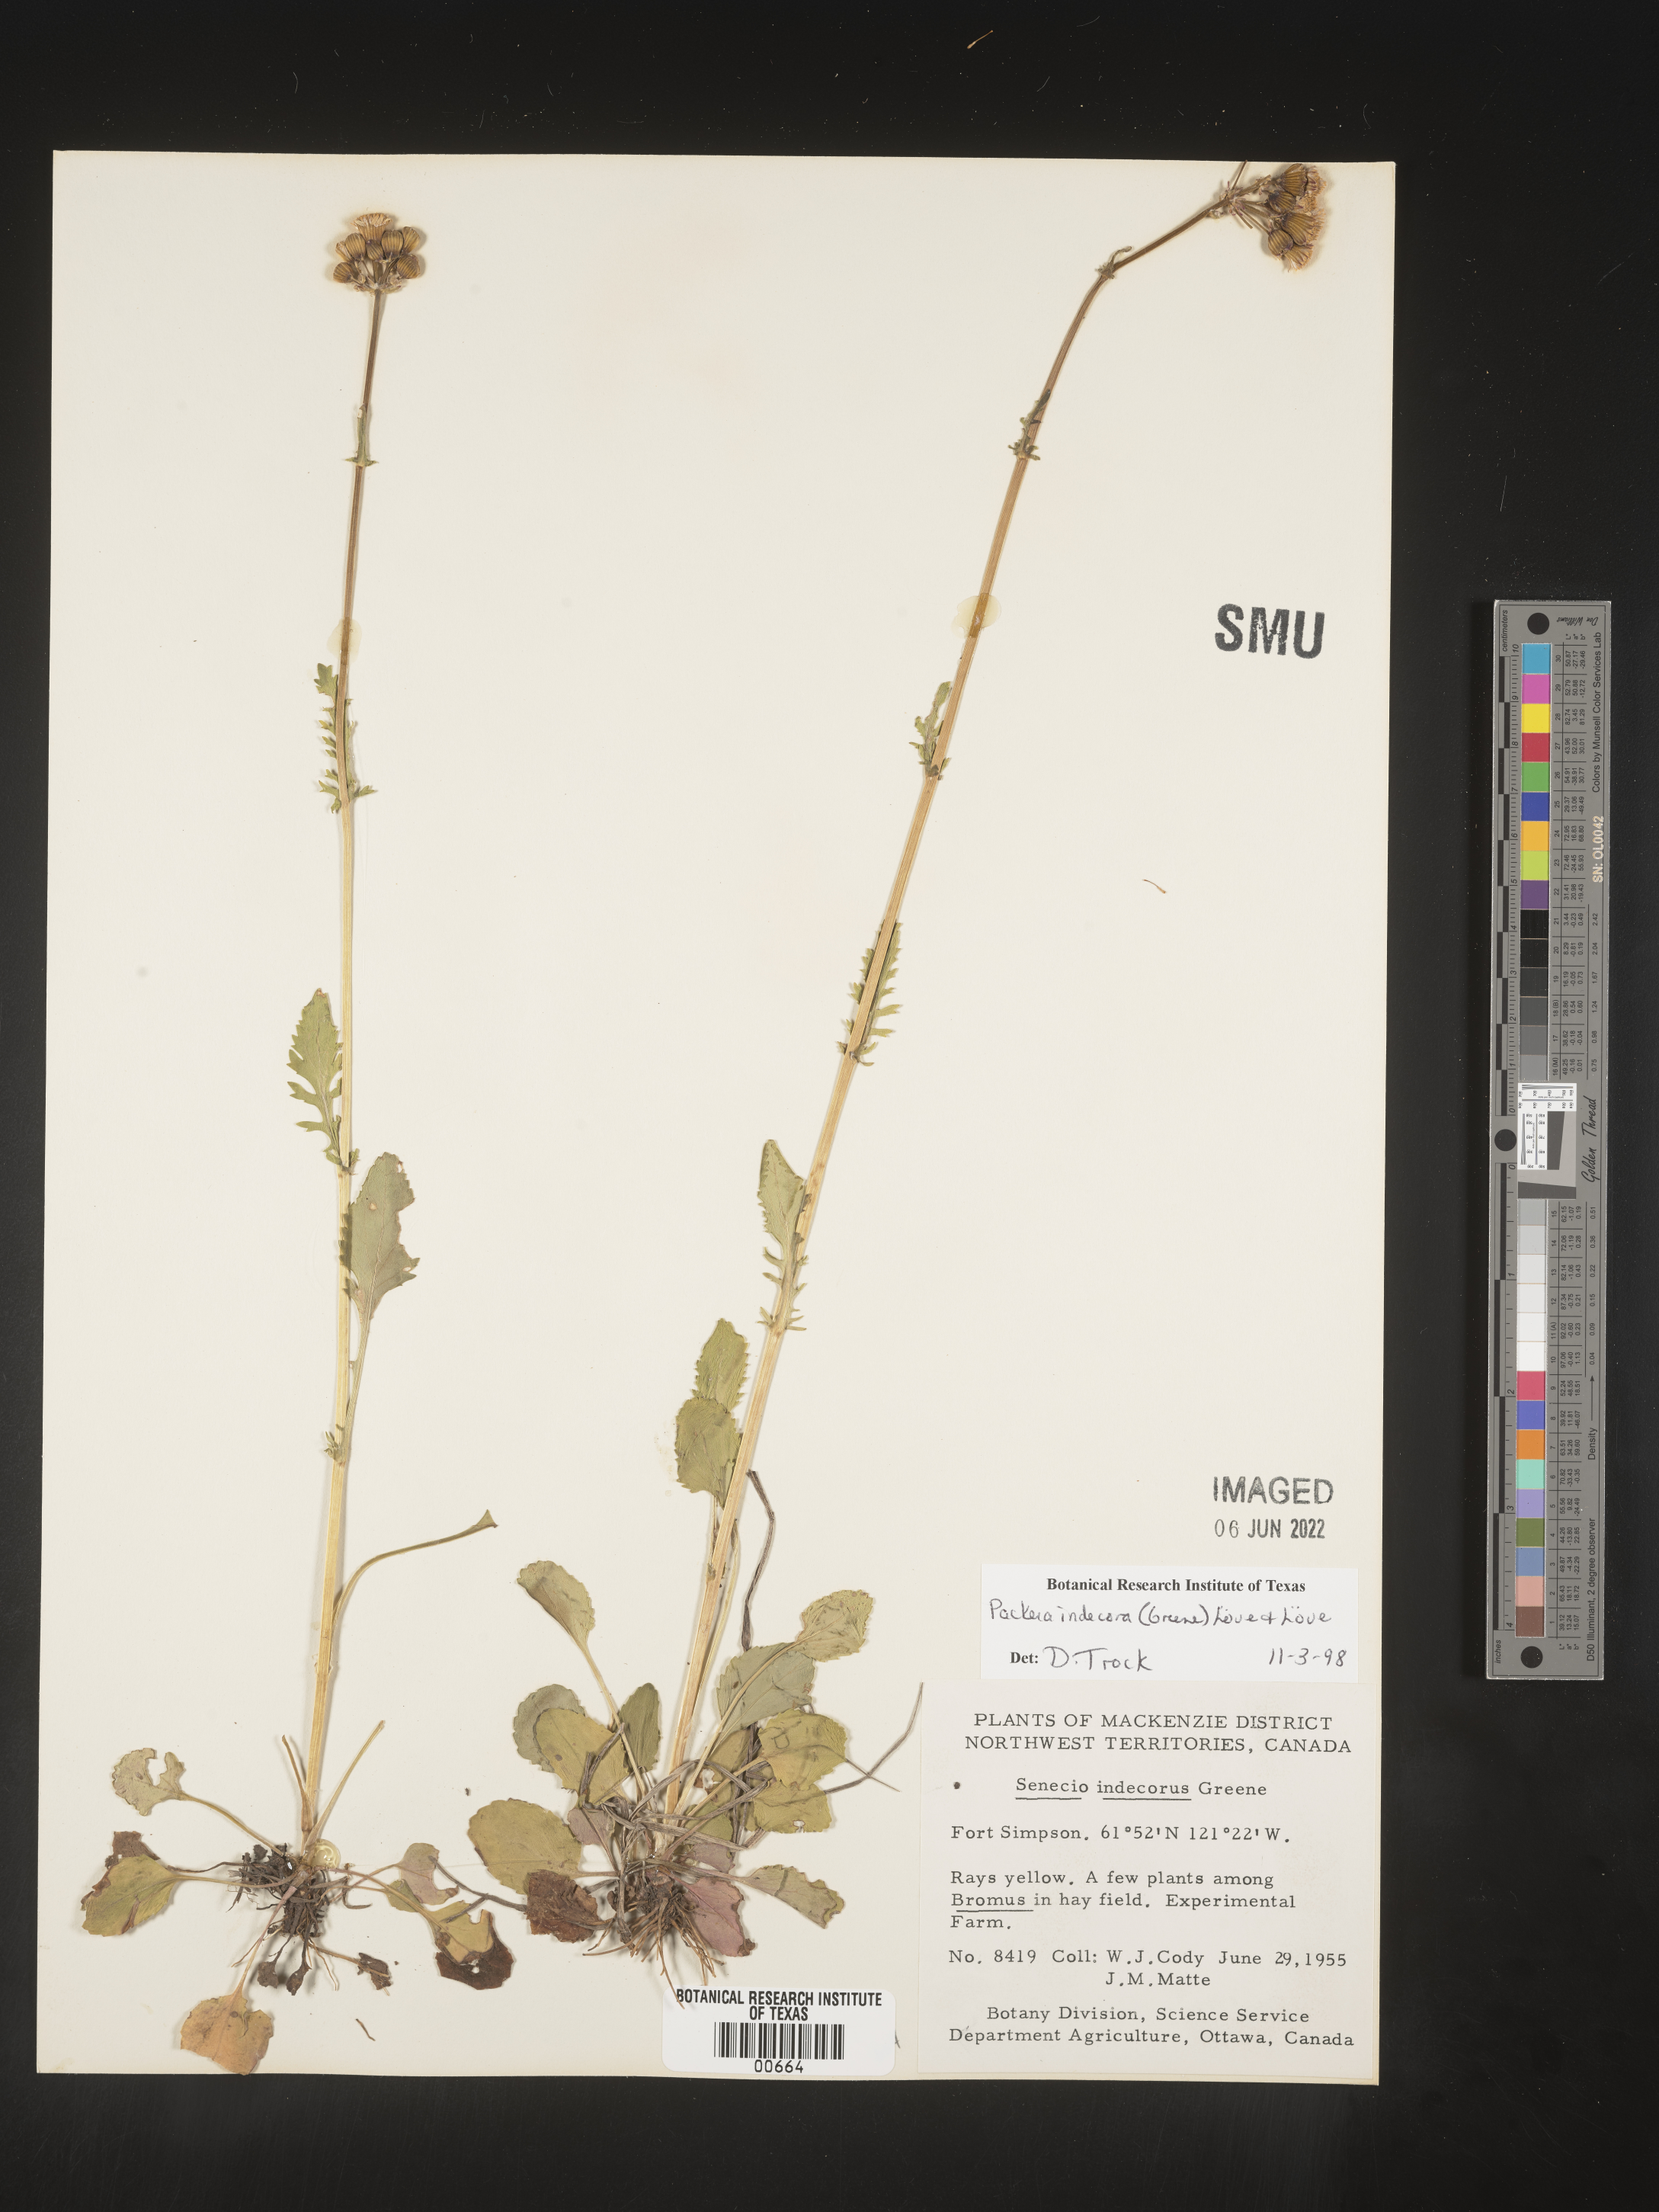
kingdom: Plantae
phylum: Tracheophyta
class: Magnoliopsida
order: Asterales
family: Asteraceae
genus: Packera
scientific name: Packera
